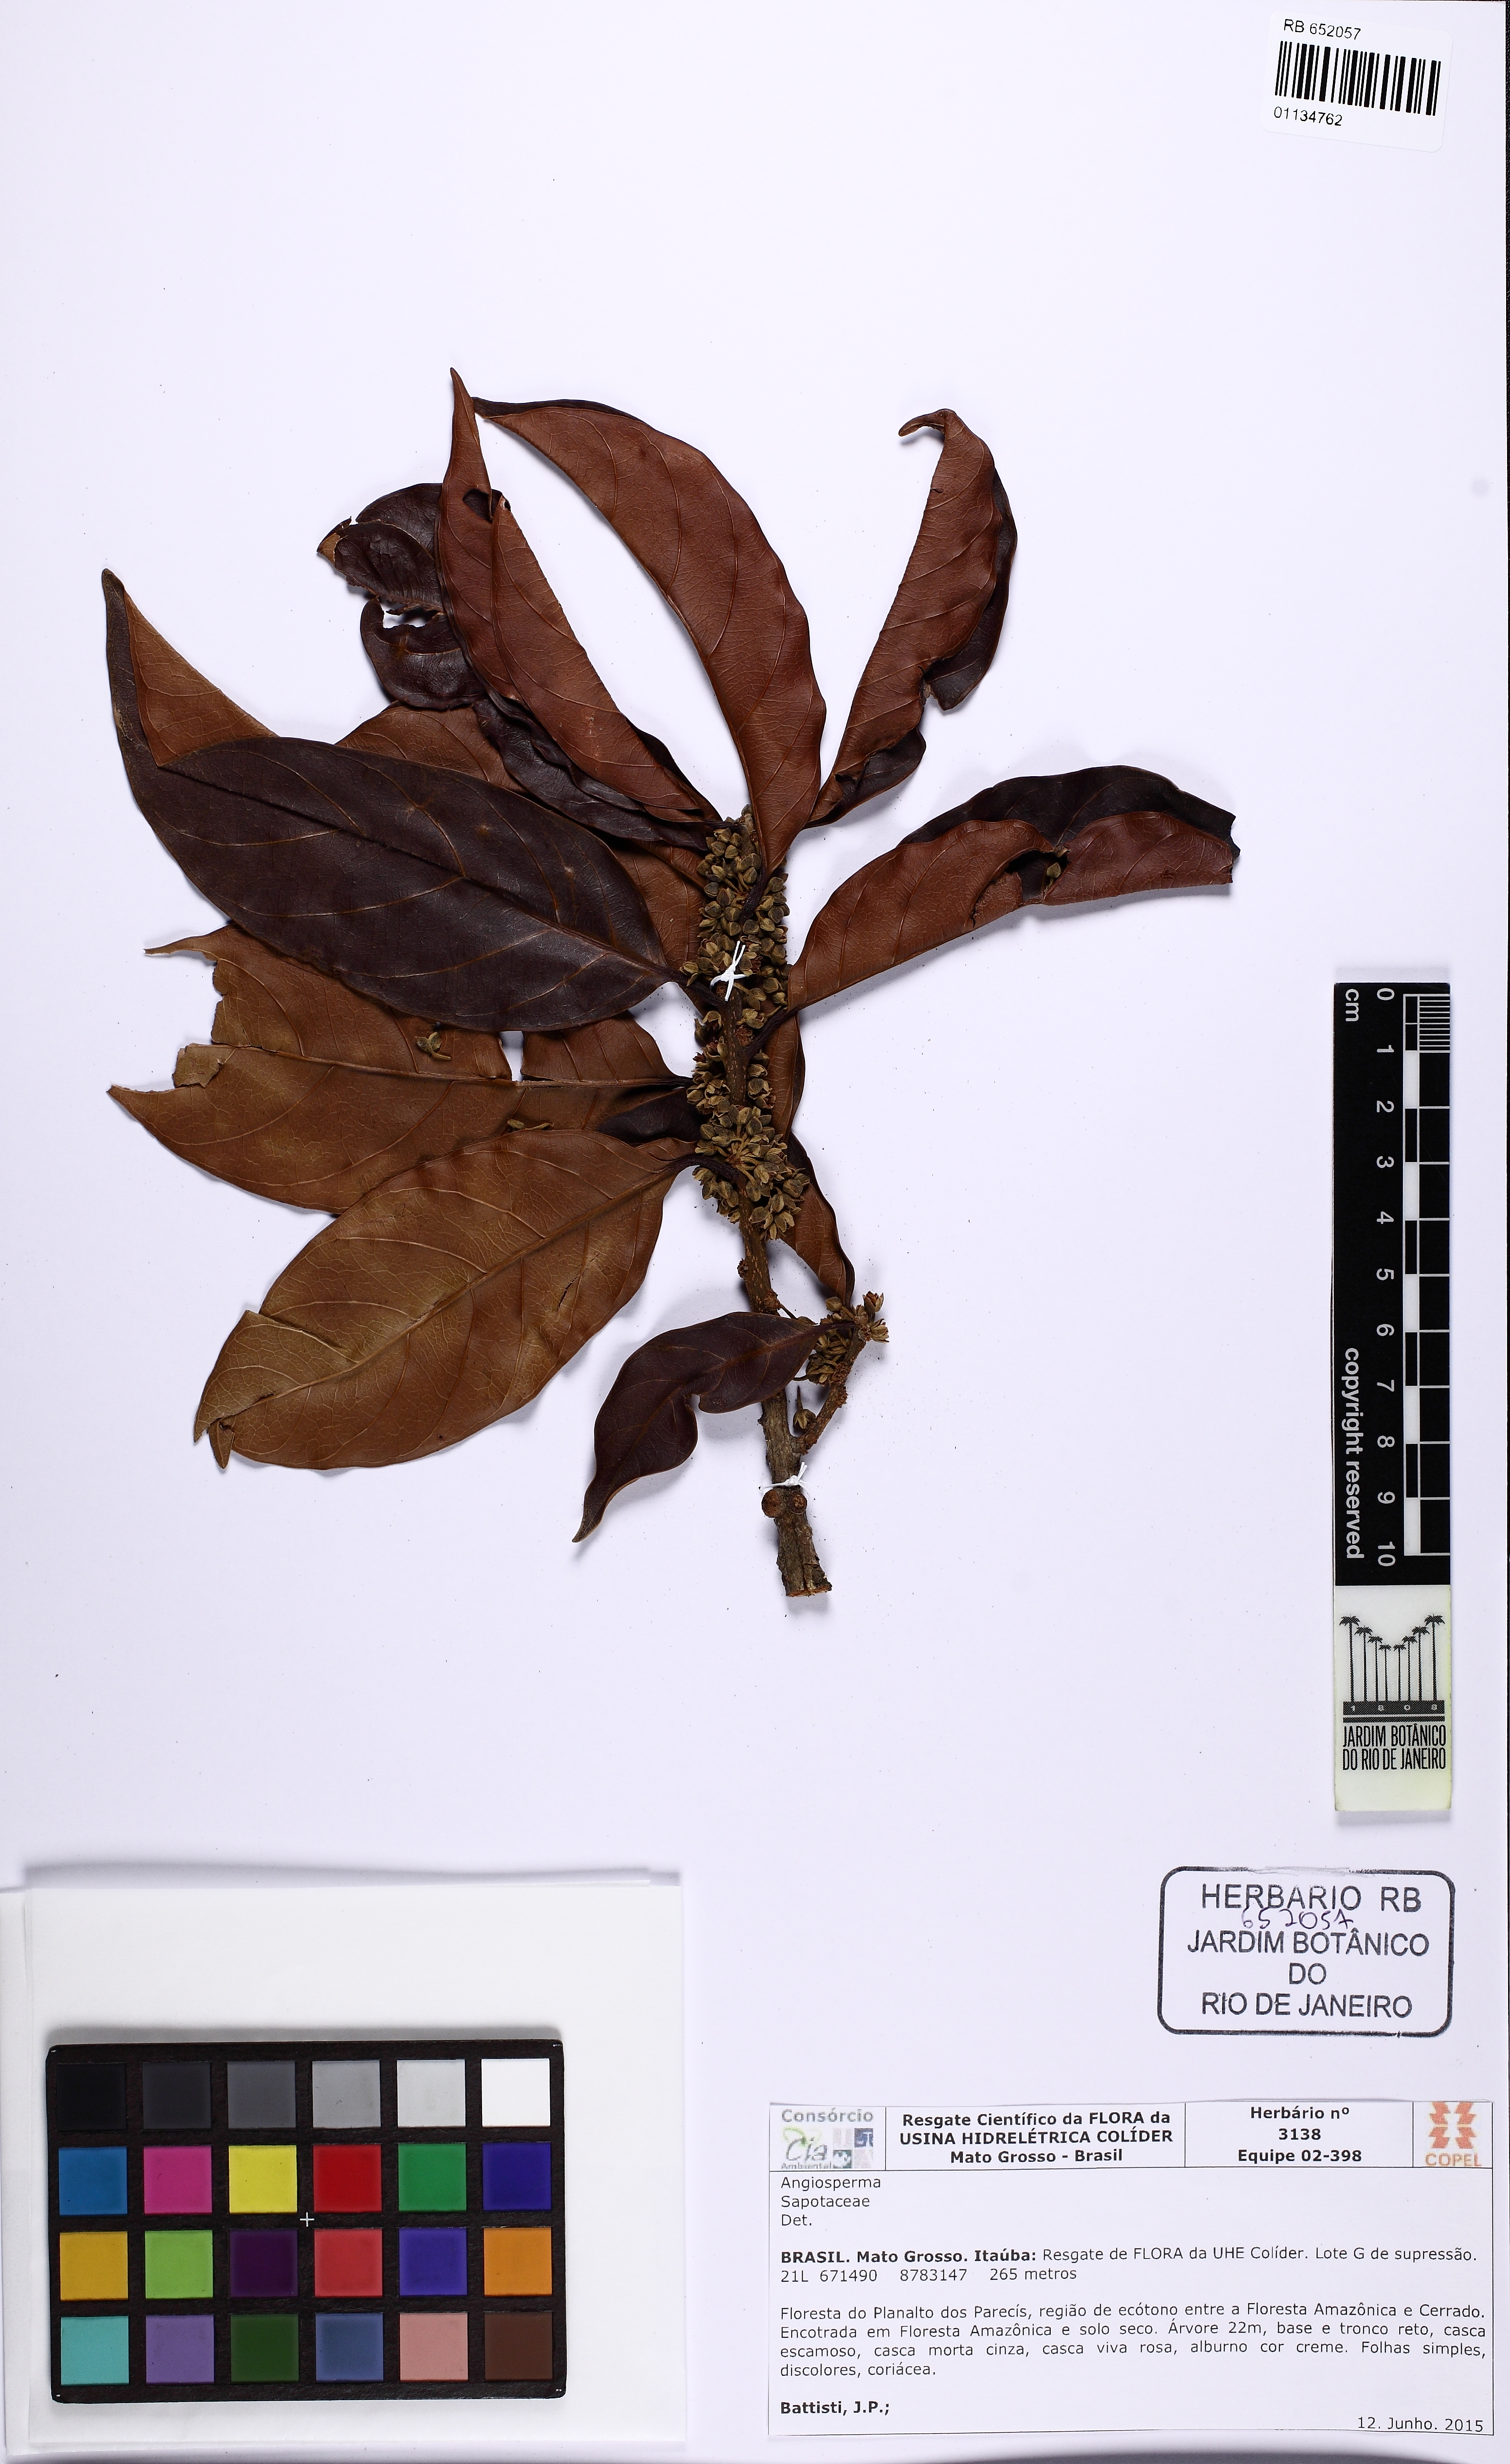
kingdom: Plantae
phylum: Tracheophyta
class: Magnoliopsida
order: Ericales
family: Sapotaceae
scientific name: Sapotaceae
